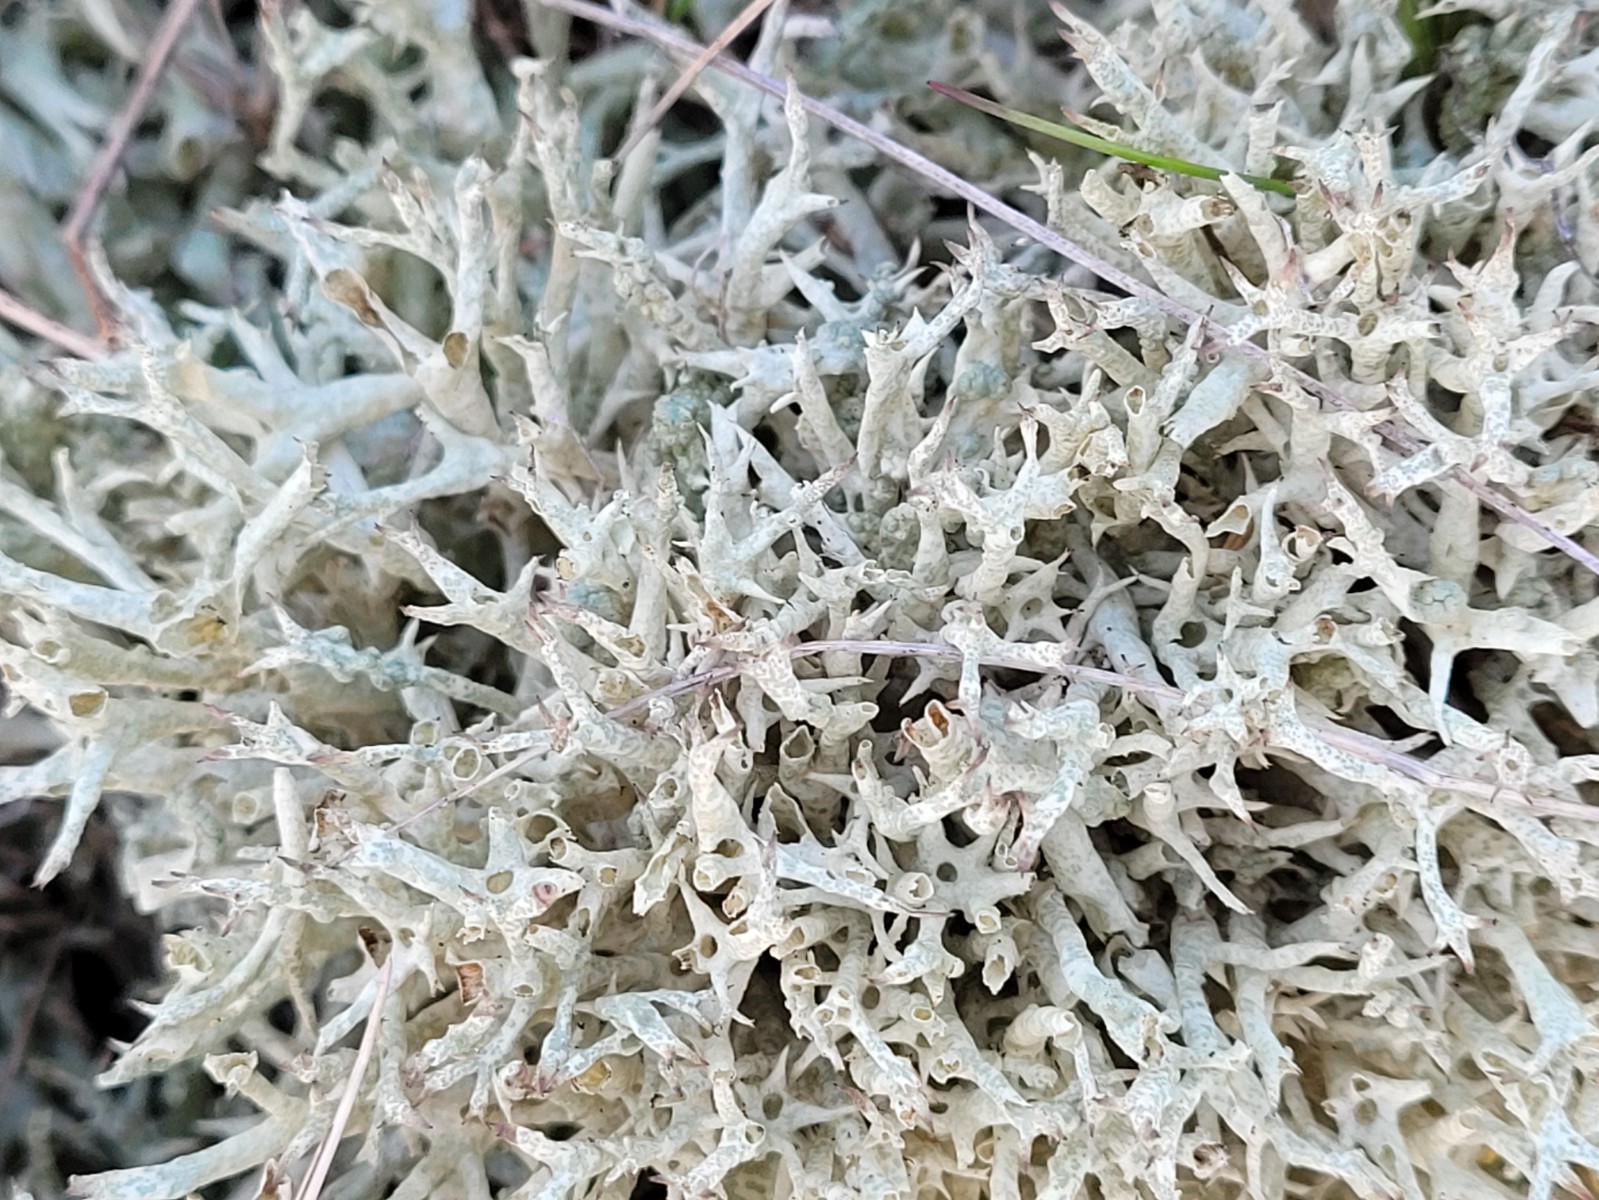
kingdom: Fungi
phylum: Ascomycota
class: Lecanoromycetes
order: Lecanorales
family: Cladoniaceae
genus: Cladonia
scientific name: Cladonia uncialis
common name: pigget bægerlav
